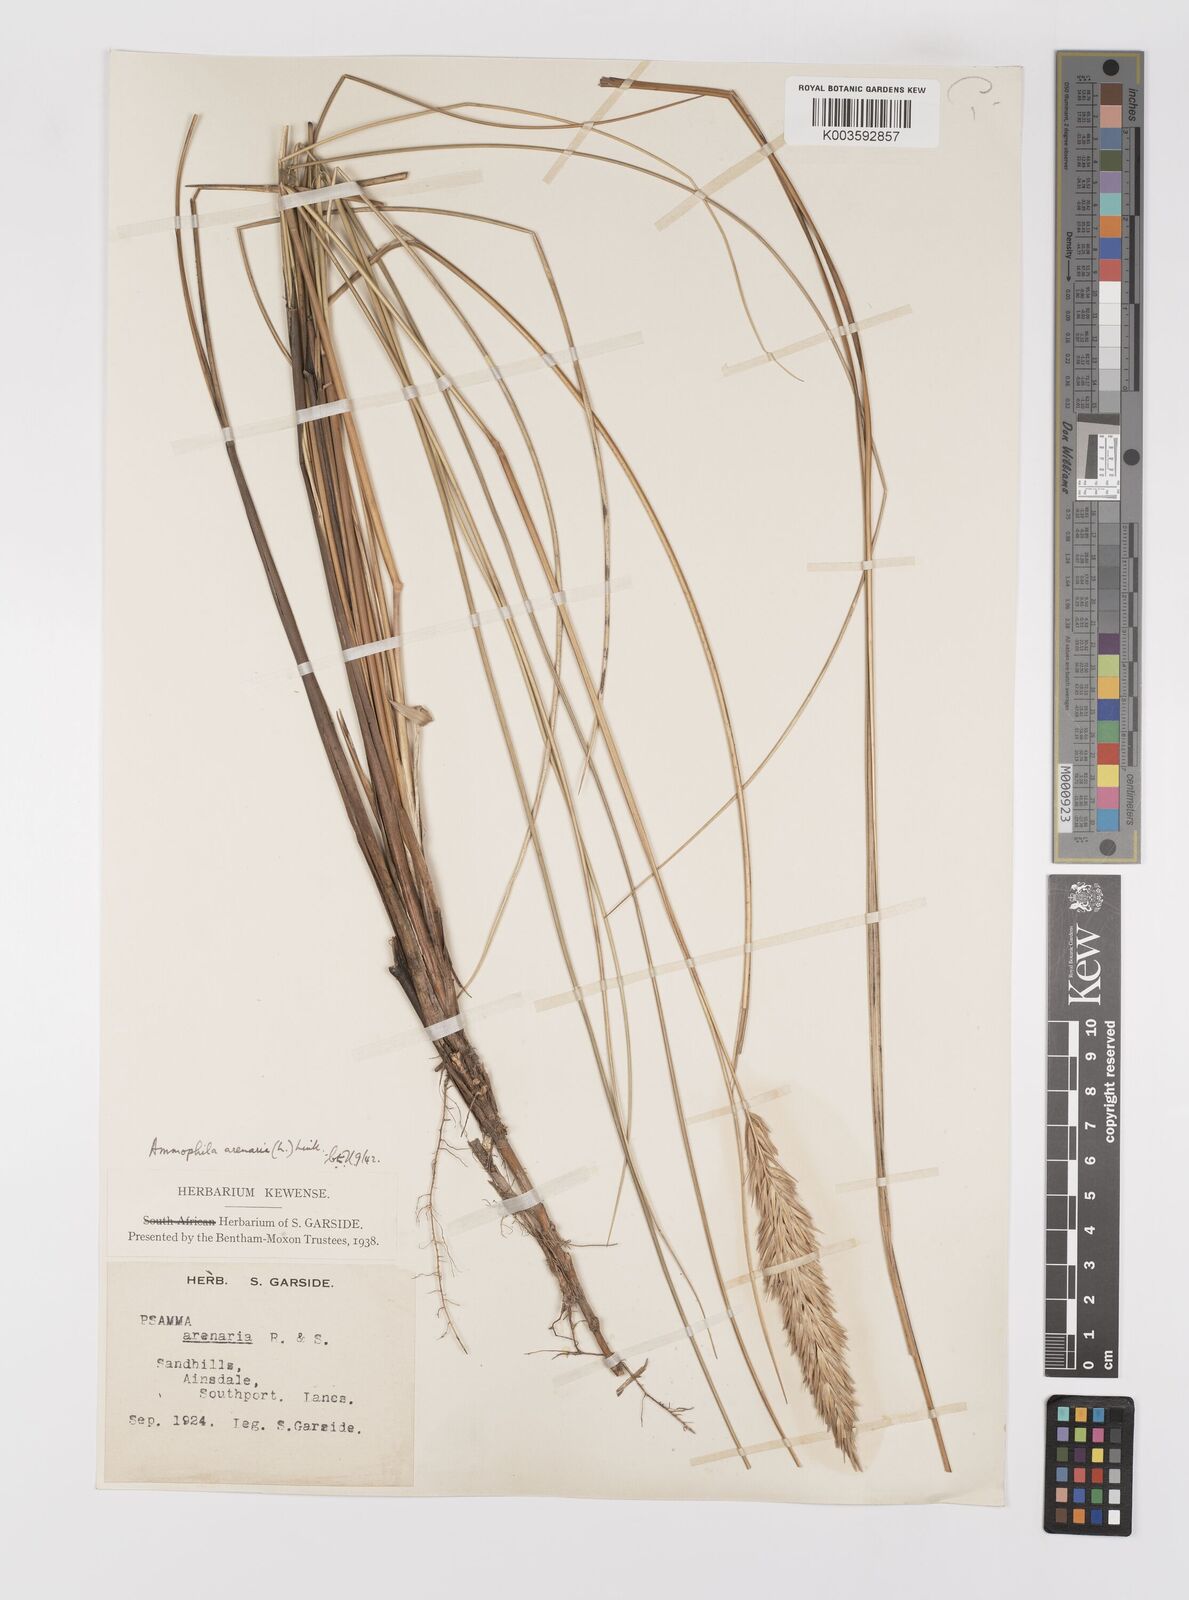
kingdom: Plantae
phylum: Tracheophyta
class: Liliopsida
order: Poales
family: Poaceae
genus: Calamagrostis
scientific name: Calamagrostis arenaria
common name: European beachgrass
